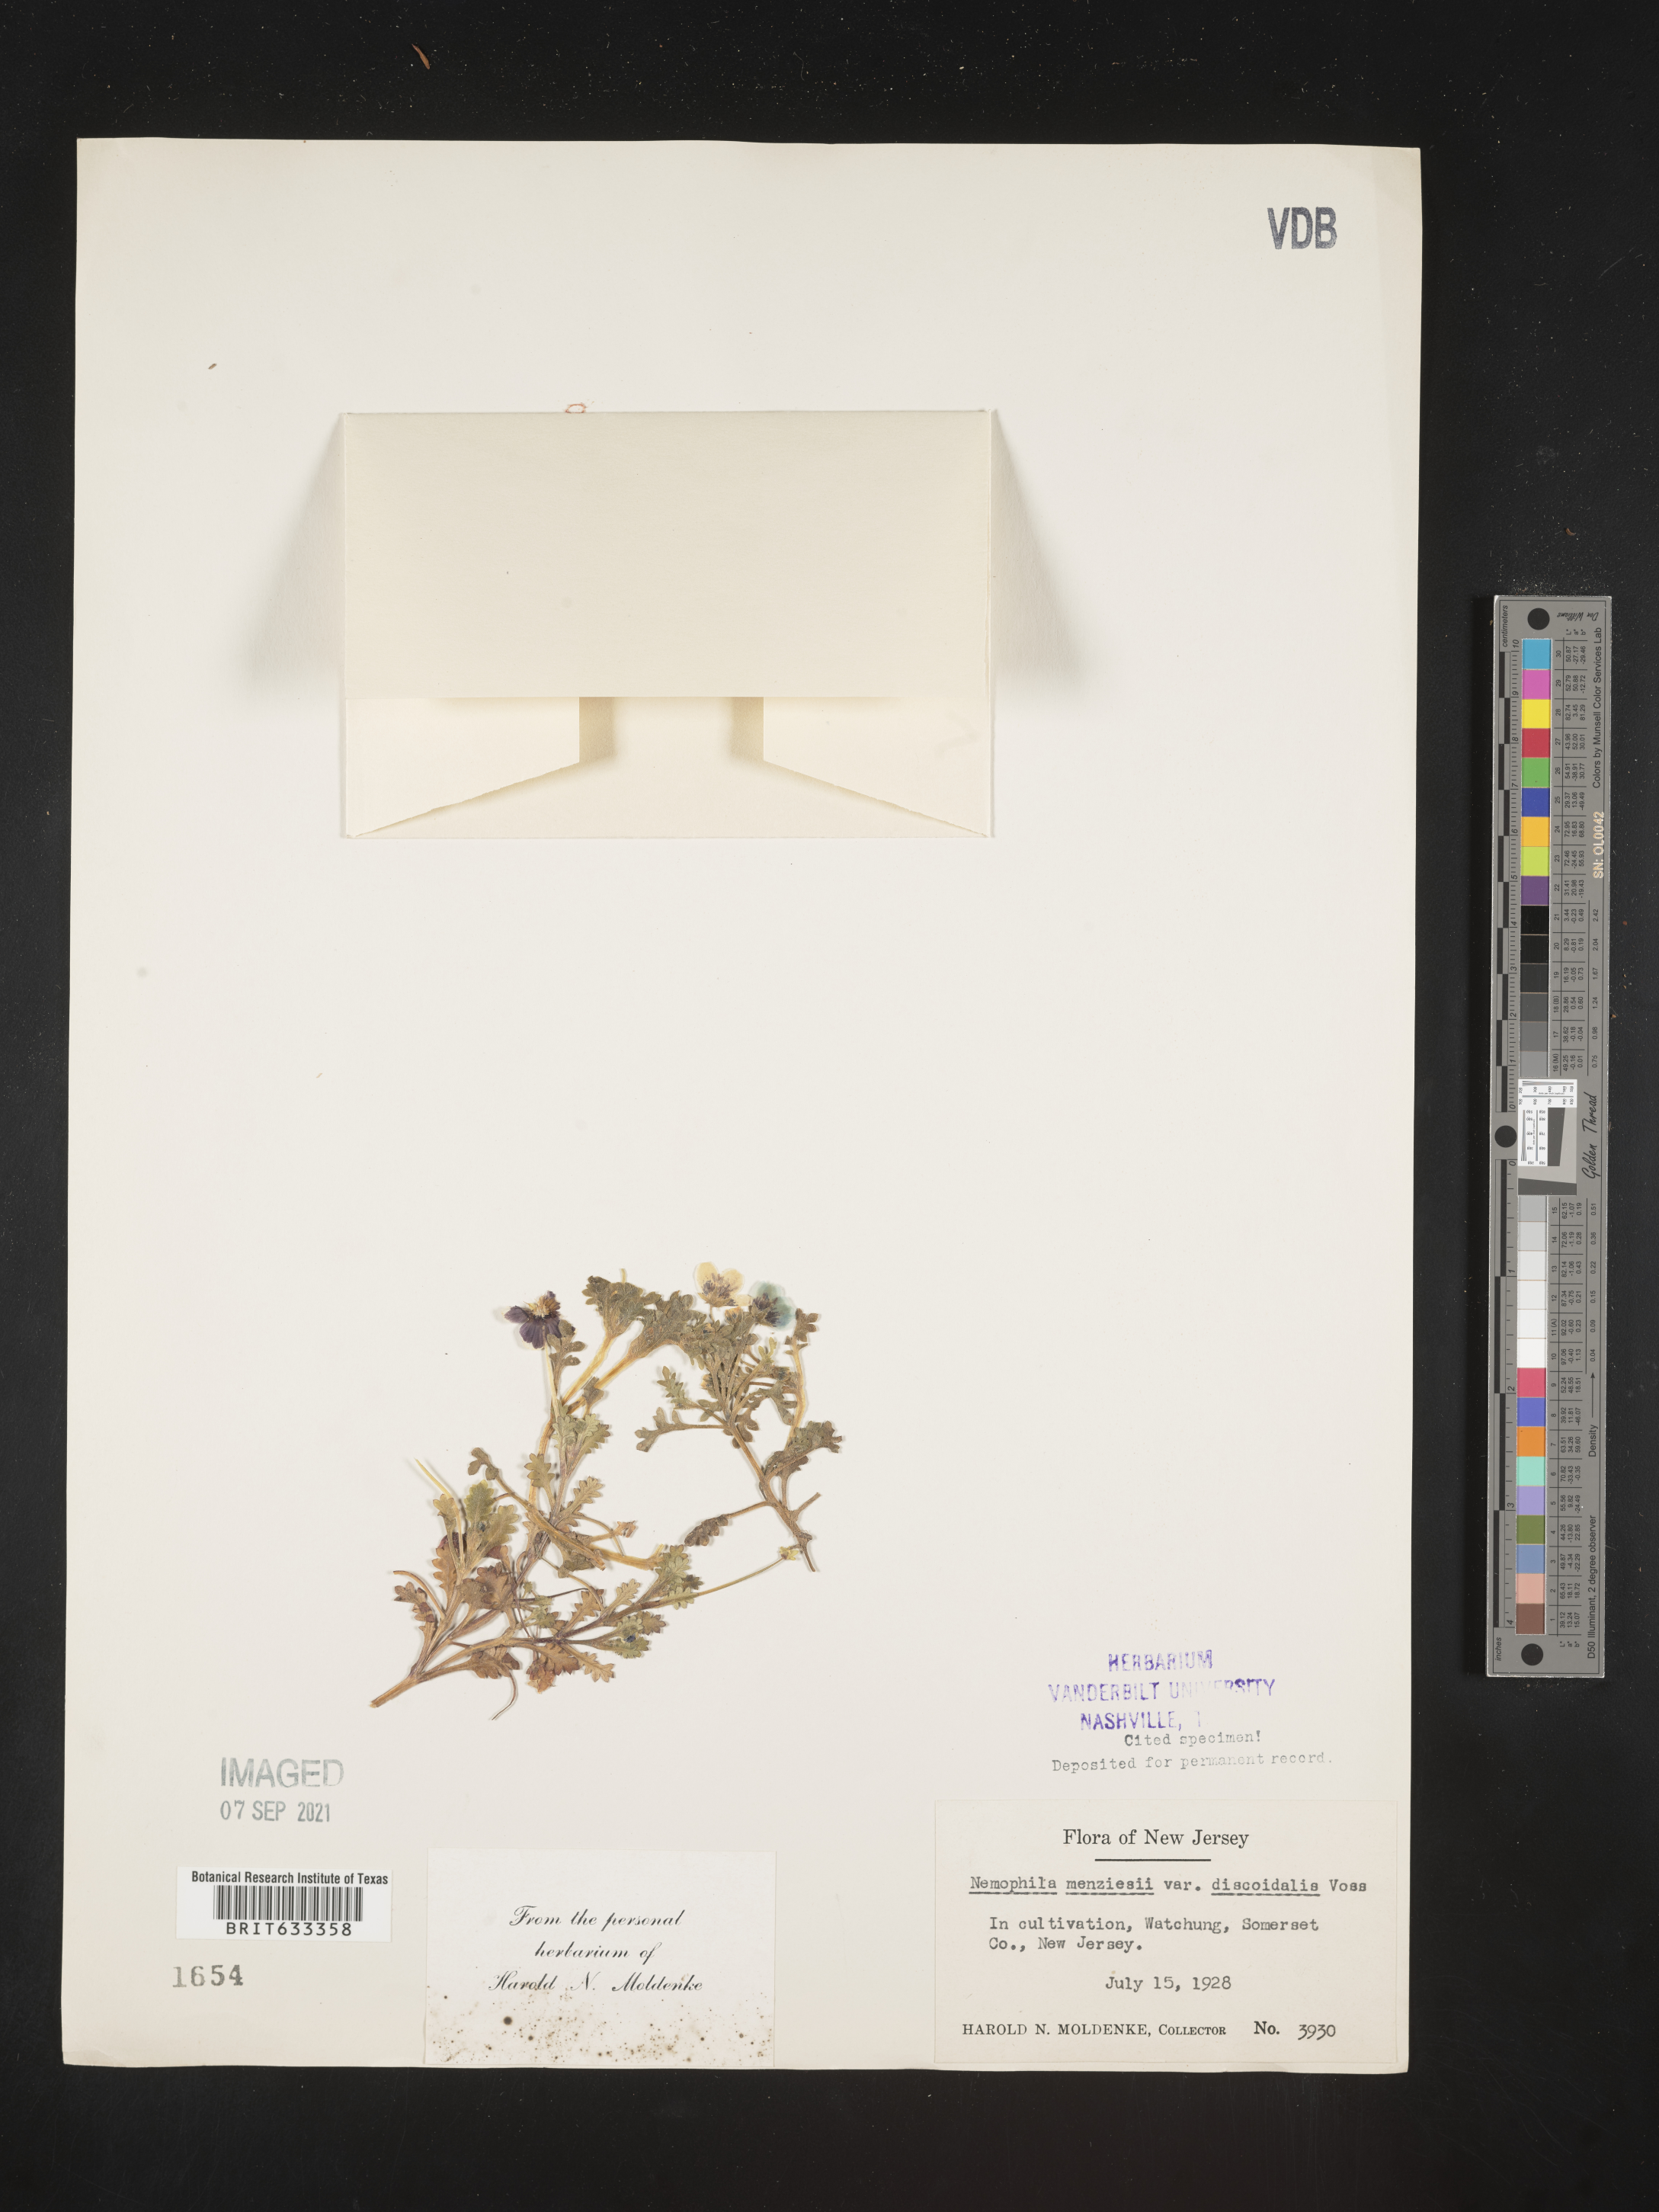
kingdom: Plantae
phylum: Tracheophyta
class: Magnoliopsida
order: Boraginales
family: Hydrophyllaceae
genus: Nemophila
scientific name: Nemophila menziesii
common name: Baby's-blue-eyes
